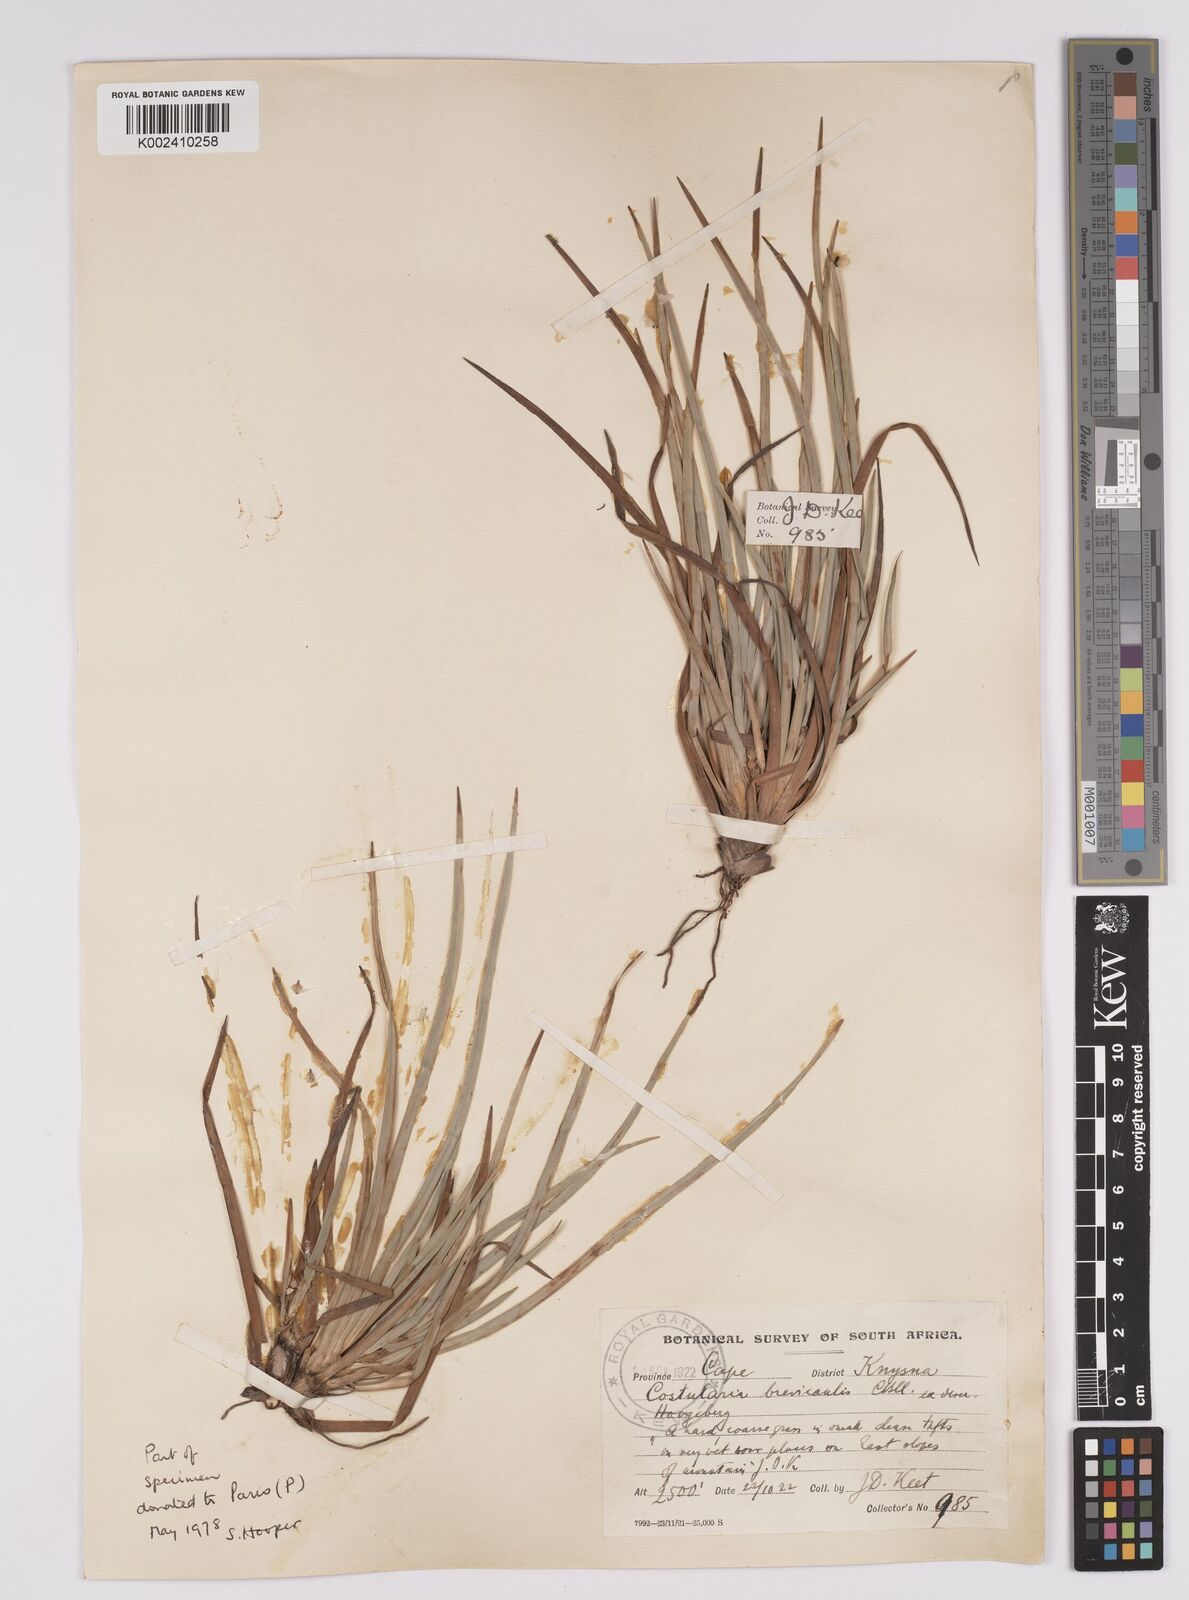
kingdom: Plantae
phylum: Tracheophyta
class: Liliopsida
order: Poales
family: Cyperaceae
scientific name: Cyperaceae
